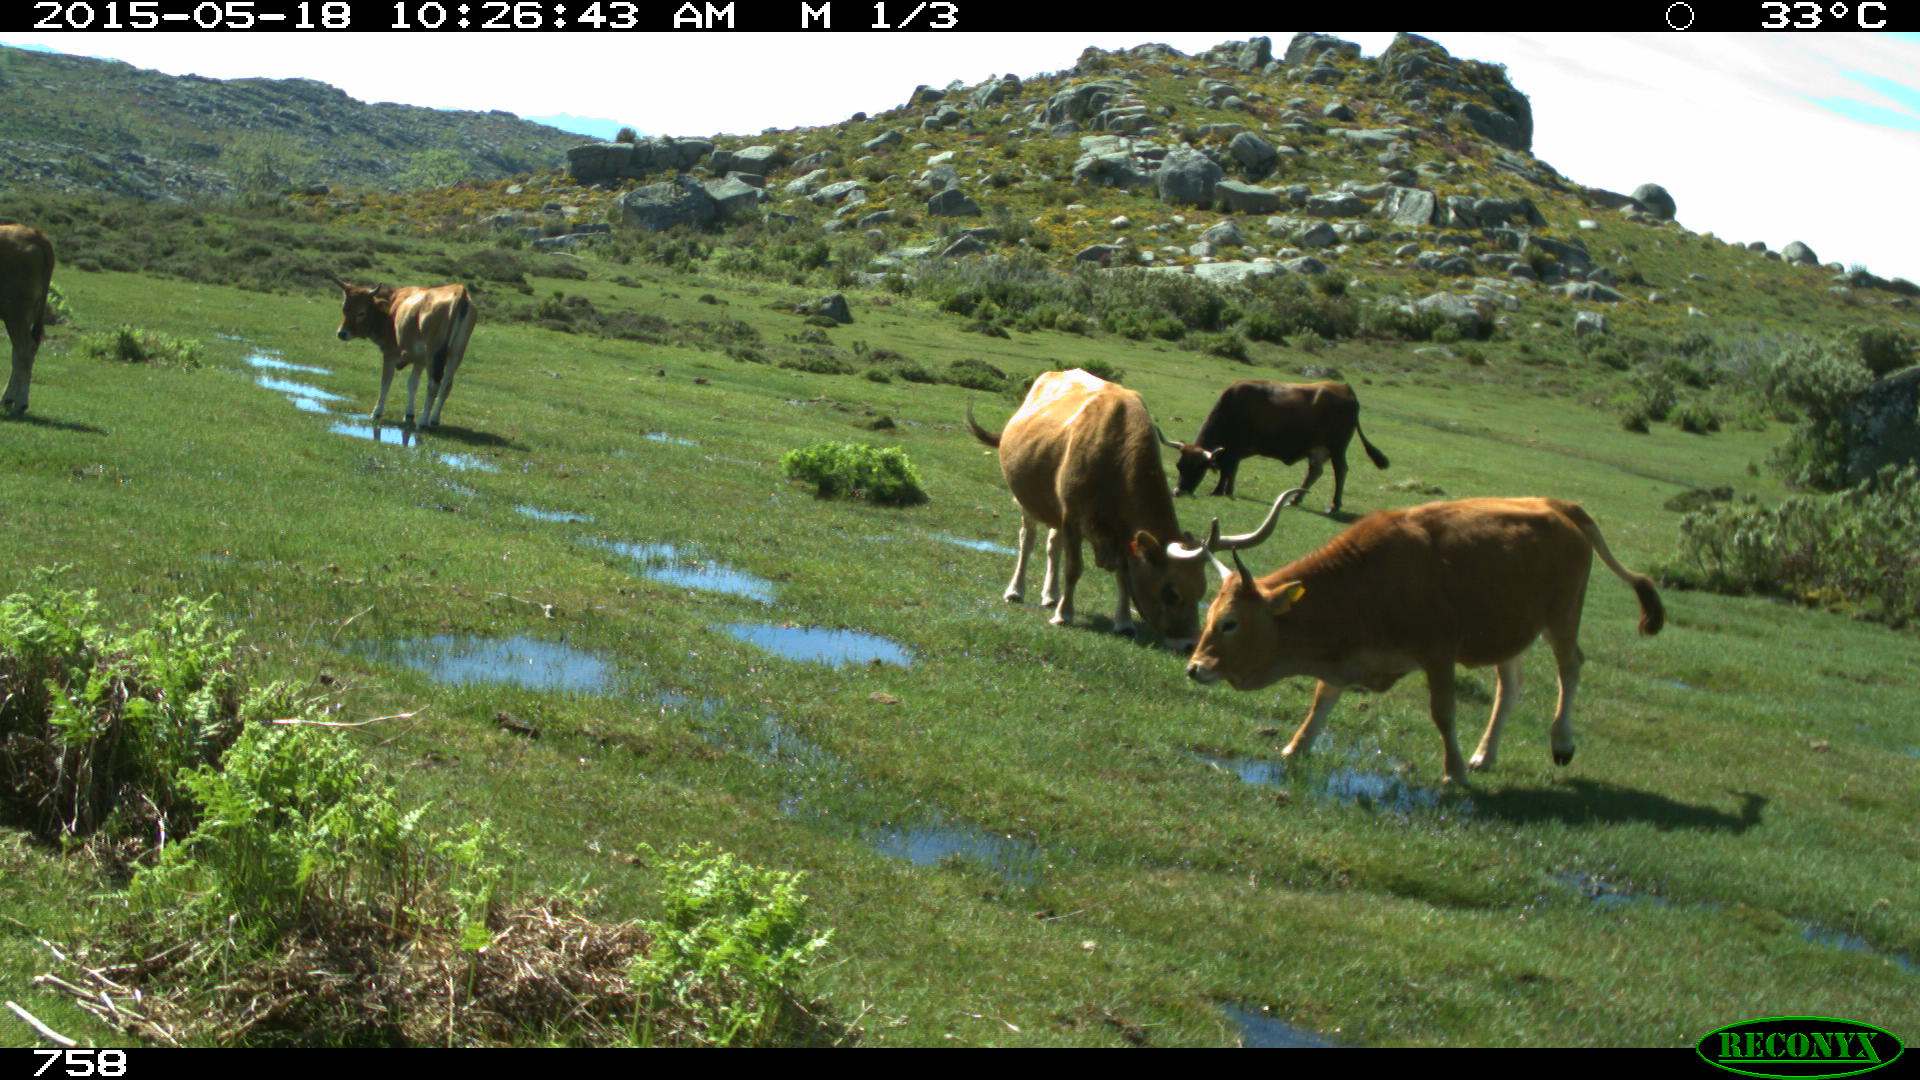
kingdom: Animalia
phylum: Chordata
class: Mammalia
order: Artiodactyla
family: Bovidae
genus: Bos
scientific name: Bos taurus
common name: Domesticated cattle
